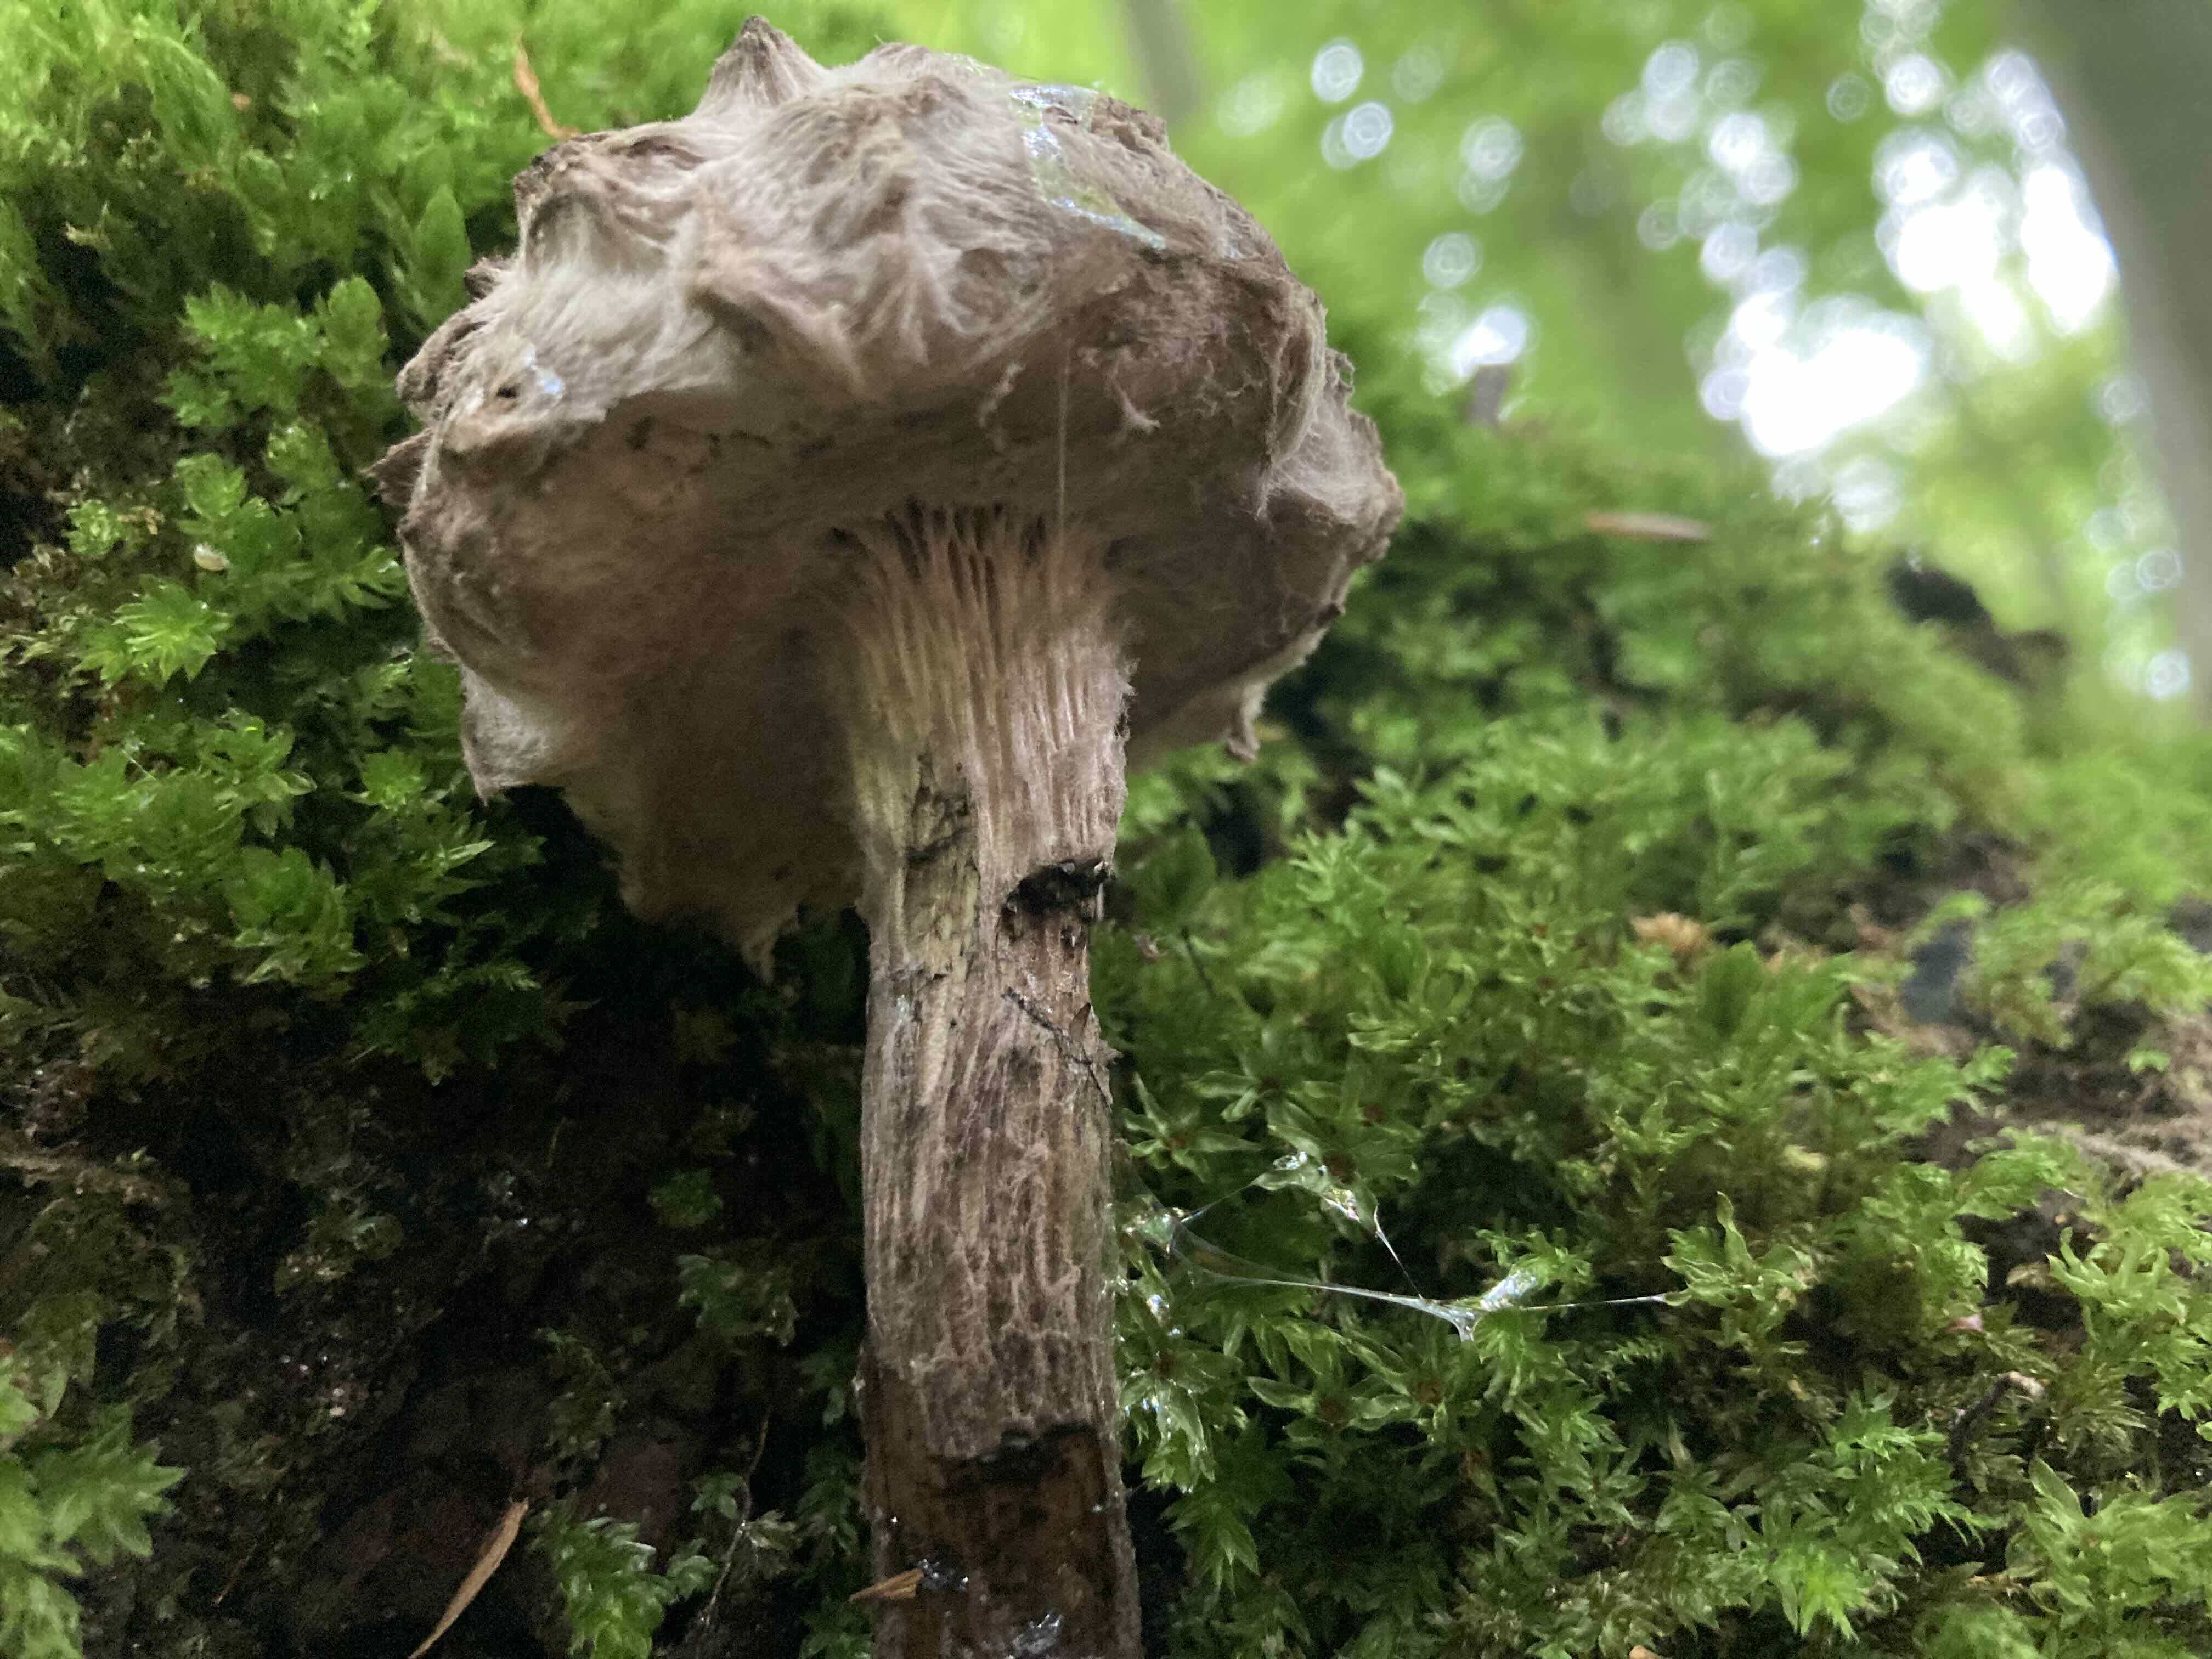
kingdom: Fungi
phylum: Basidiomycota
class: Agaricomycetes
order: Boletales
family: Boletaceae
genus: Strobilomyces
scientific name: Strobilomyces strobilaceus
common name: koglerørhat
